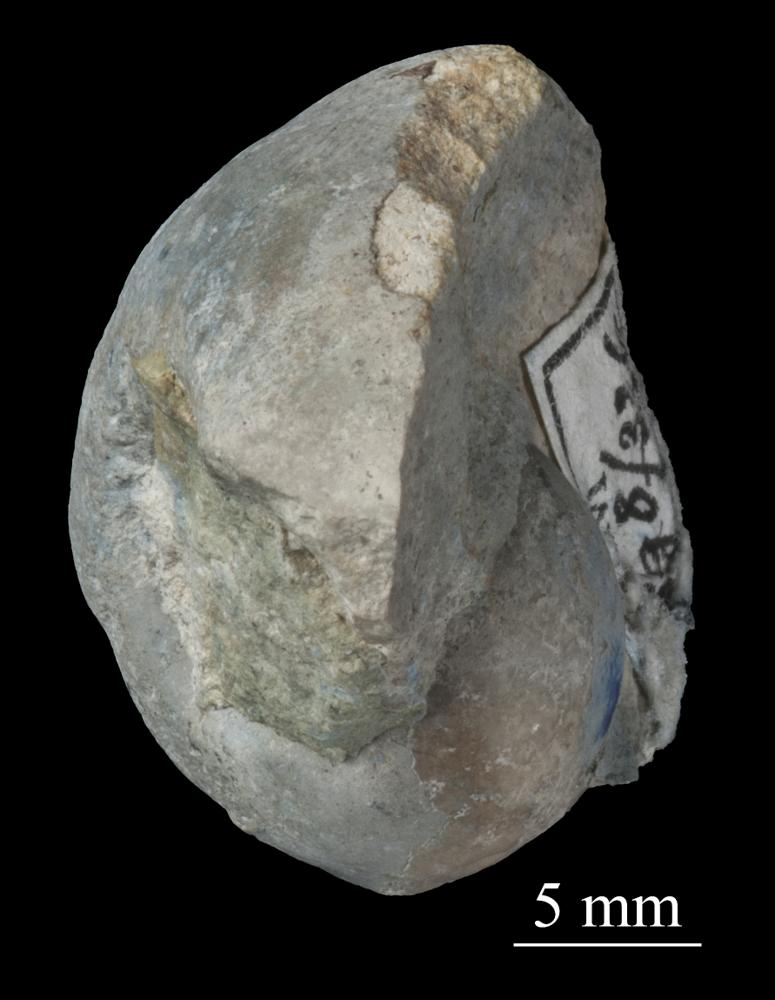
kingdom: Animalia
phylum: Mollusca
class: Gastropoda
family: Bellerophontidae
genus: Bellerophon
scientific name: Bellerophon
